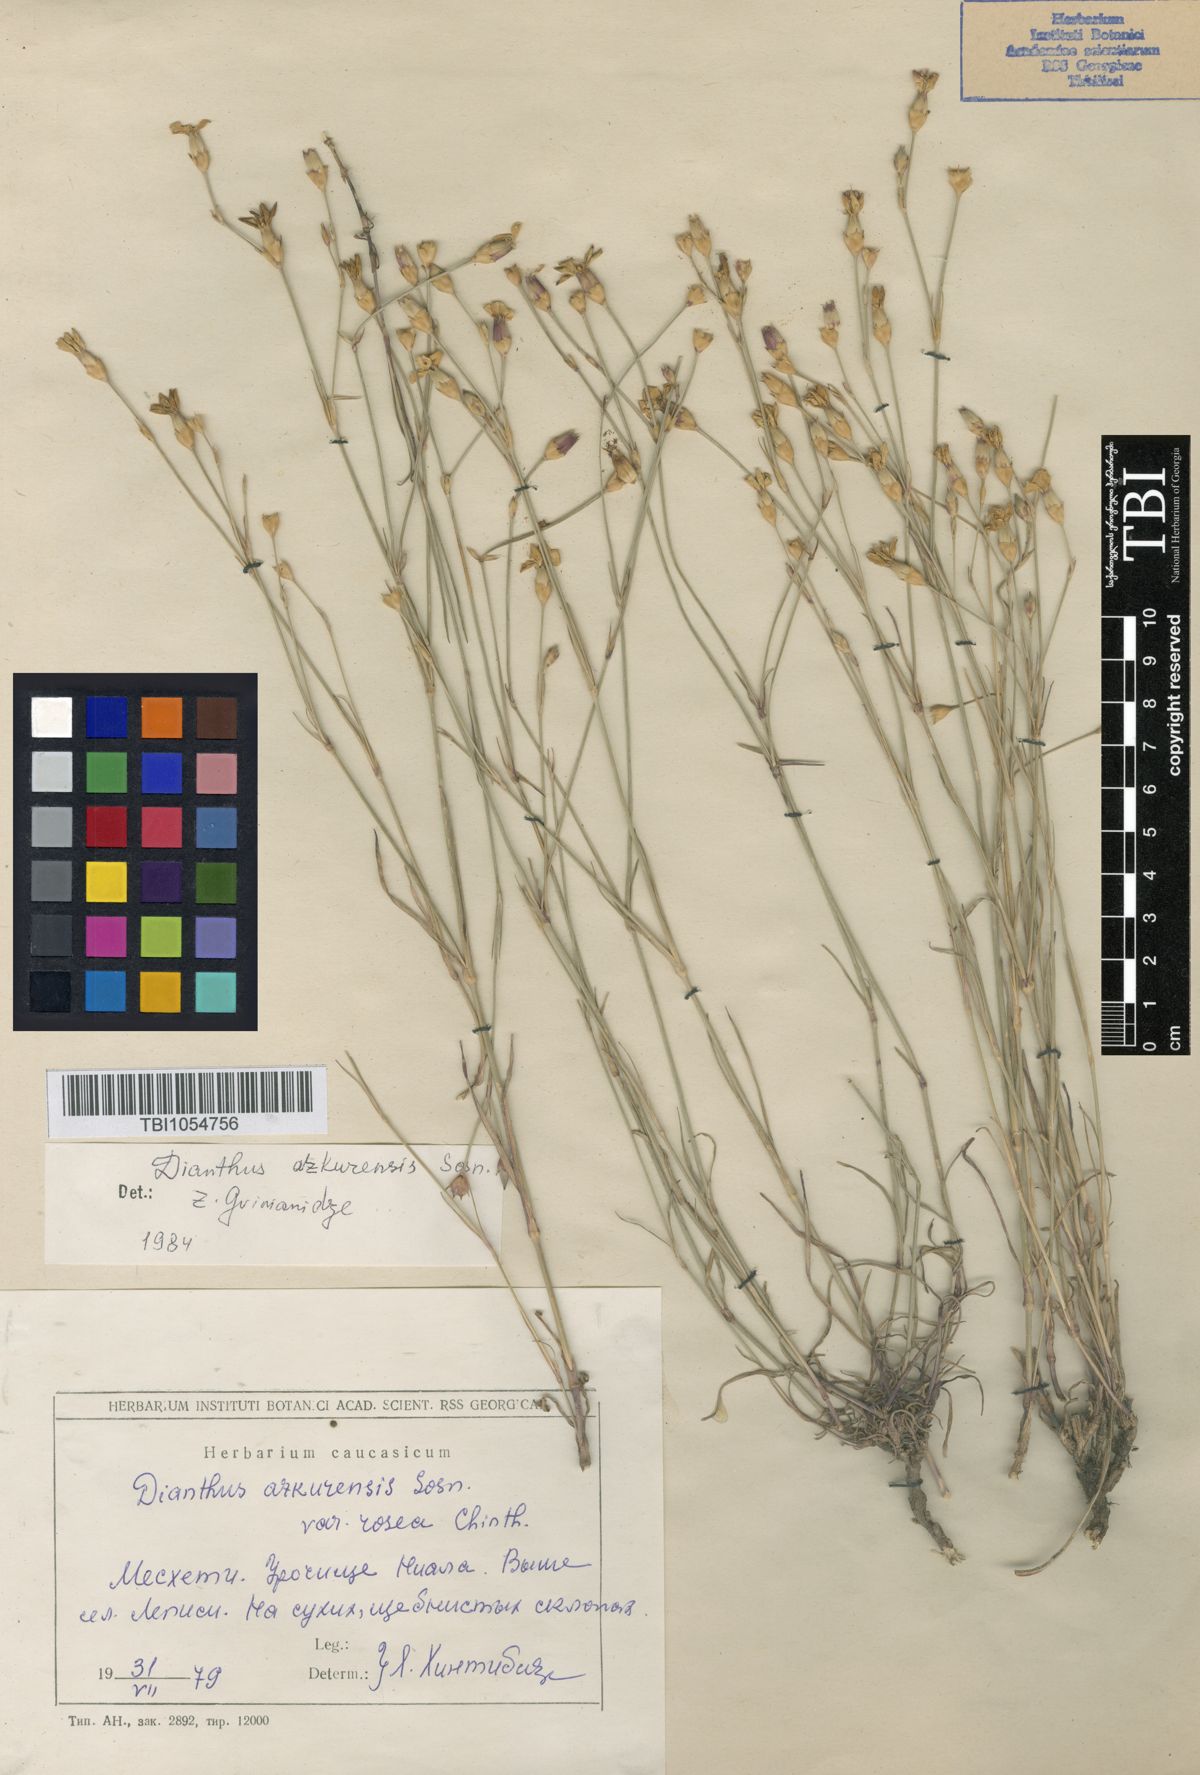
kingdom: Plantae
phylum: Tracheophyta
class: Magnoliopsida
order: Caryophyllales
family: Caryophyllaceae
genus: Dianthus
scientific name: Dianthus
